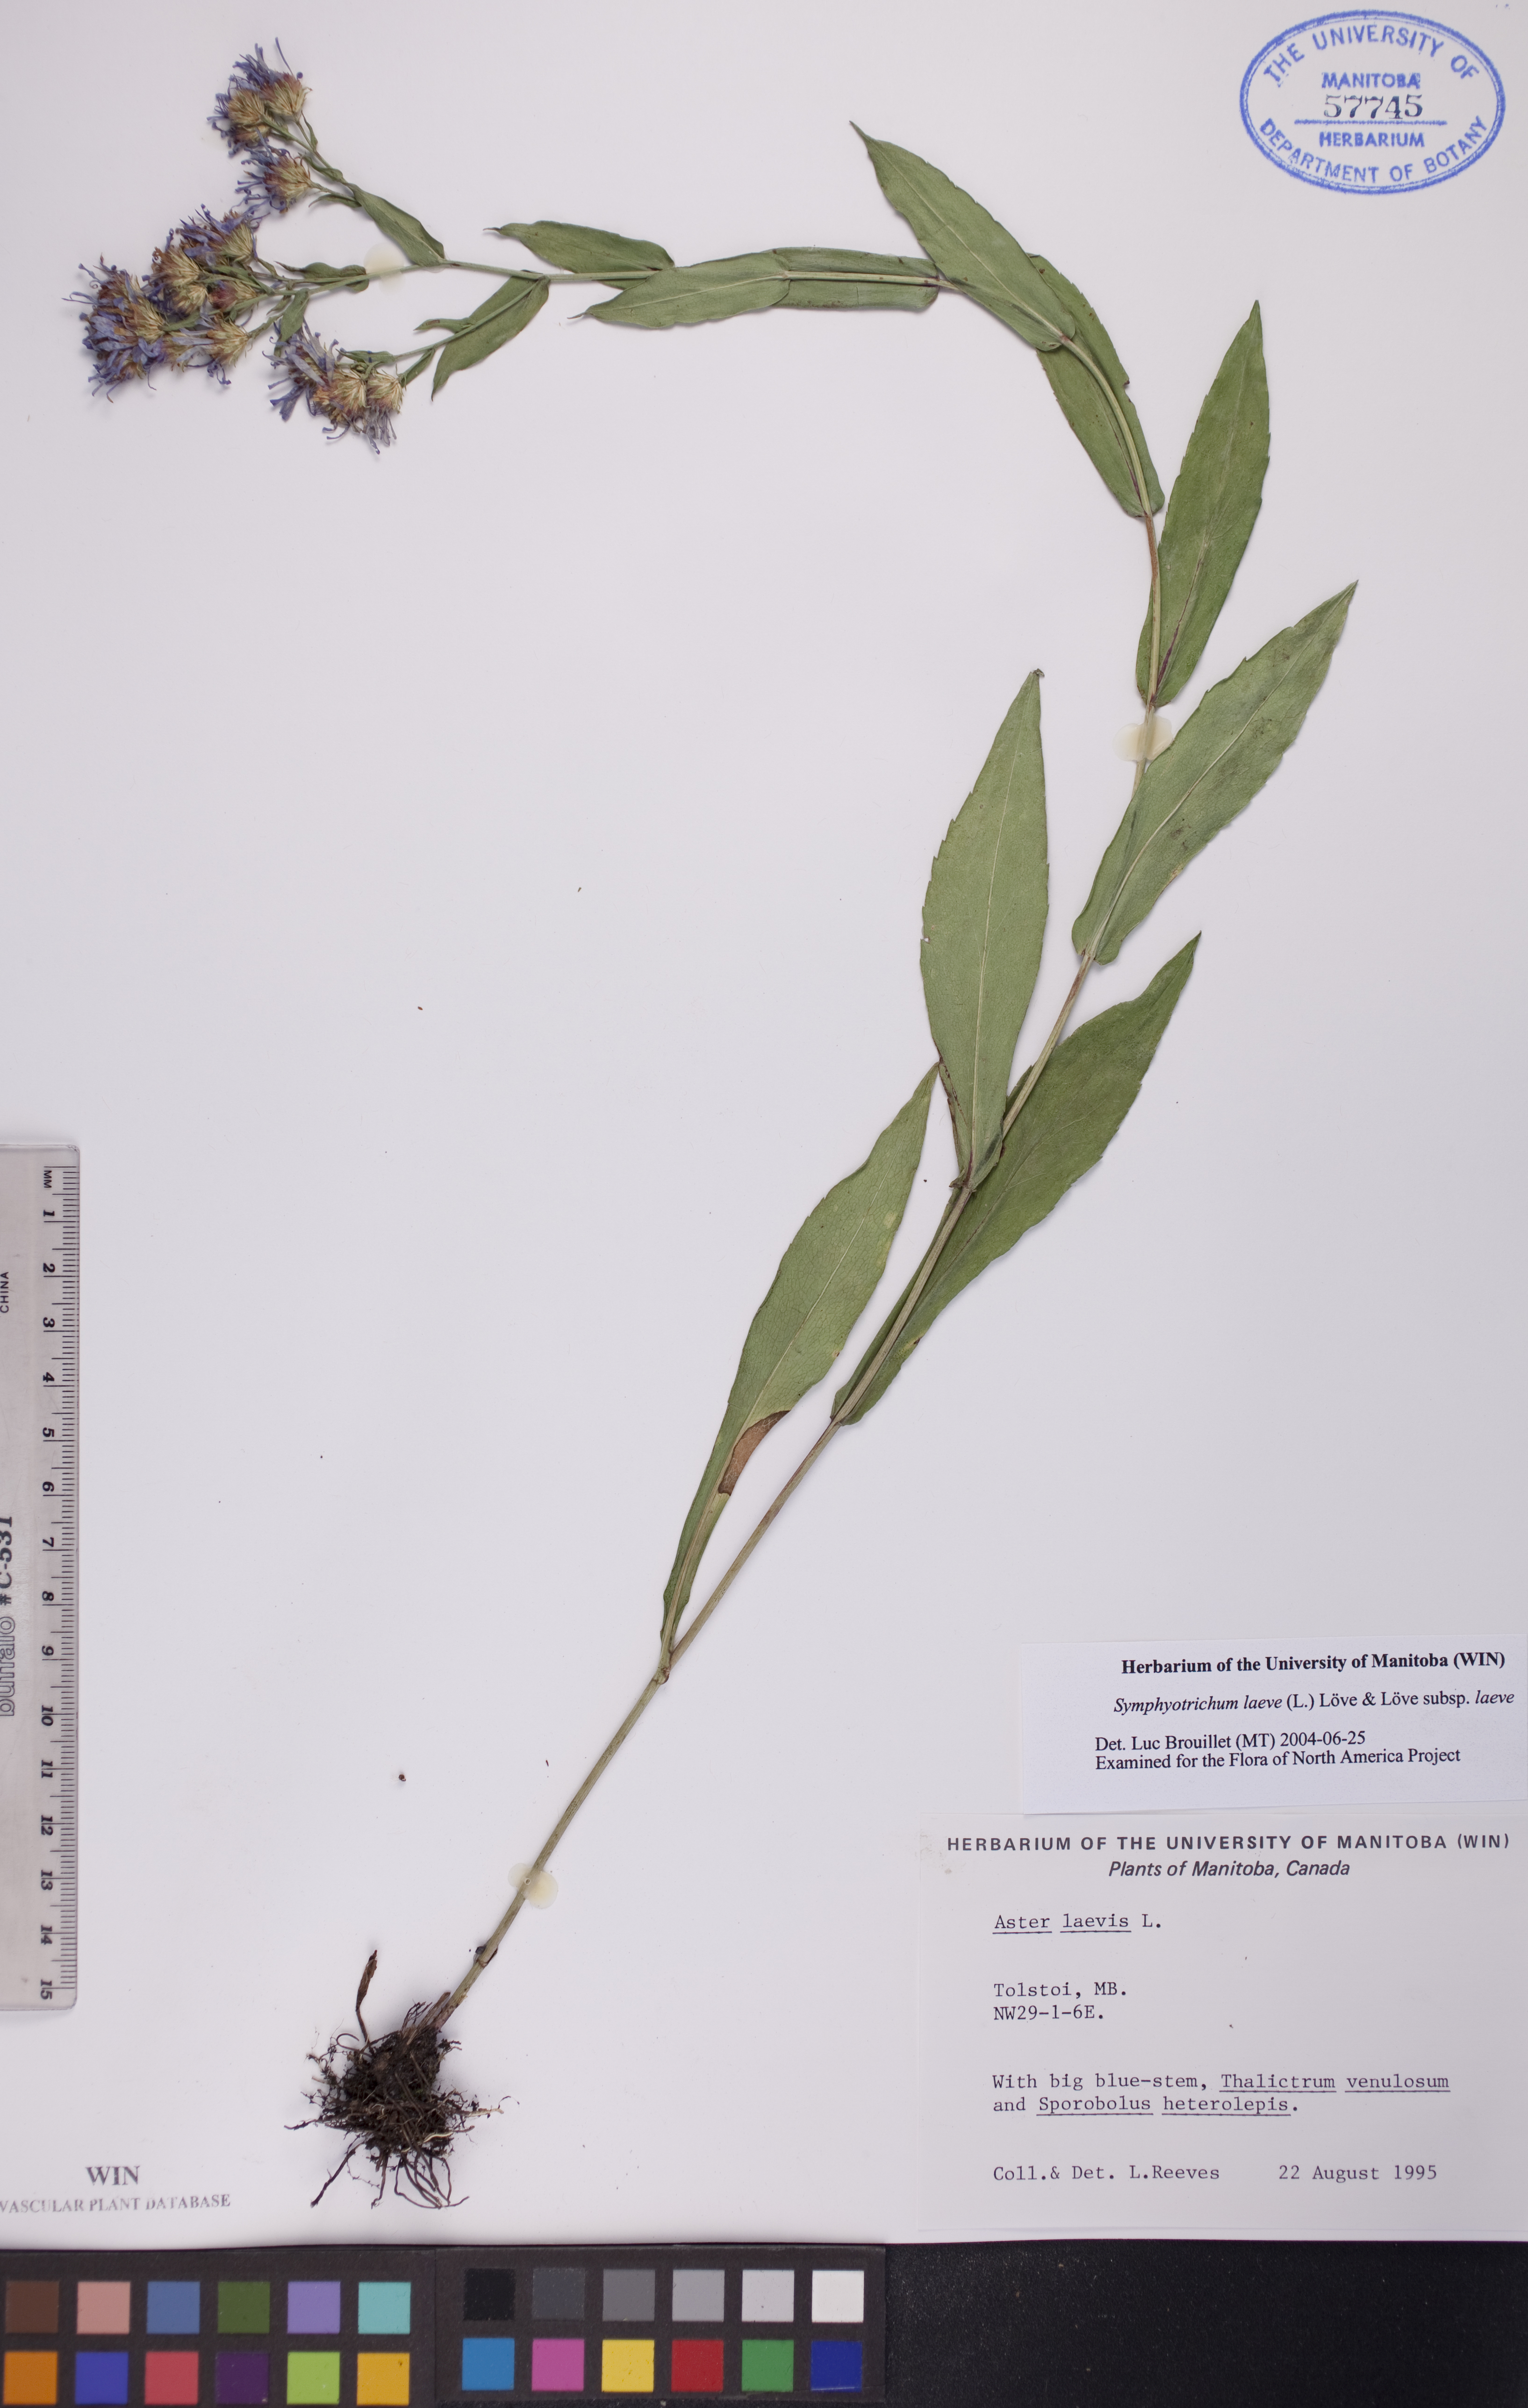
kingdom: Plantae
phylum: Tracheophyta
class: Magnoliopsida
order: Asterales
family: Asteraceae
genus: Symphyotrichum
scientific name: Symphyotrichum laeve
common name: Glaucous aster
